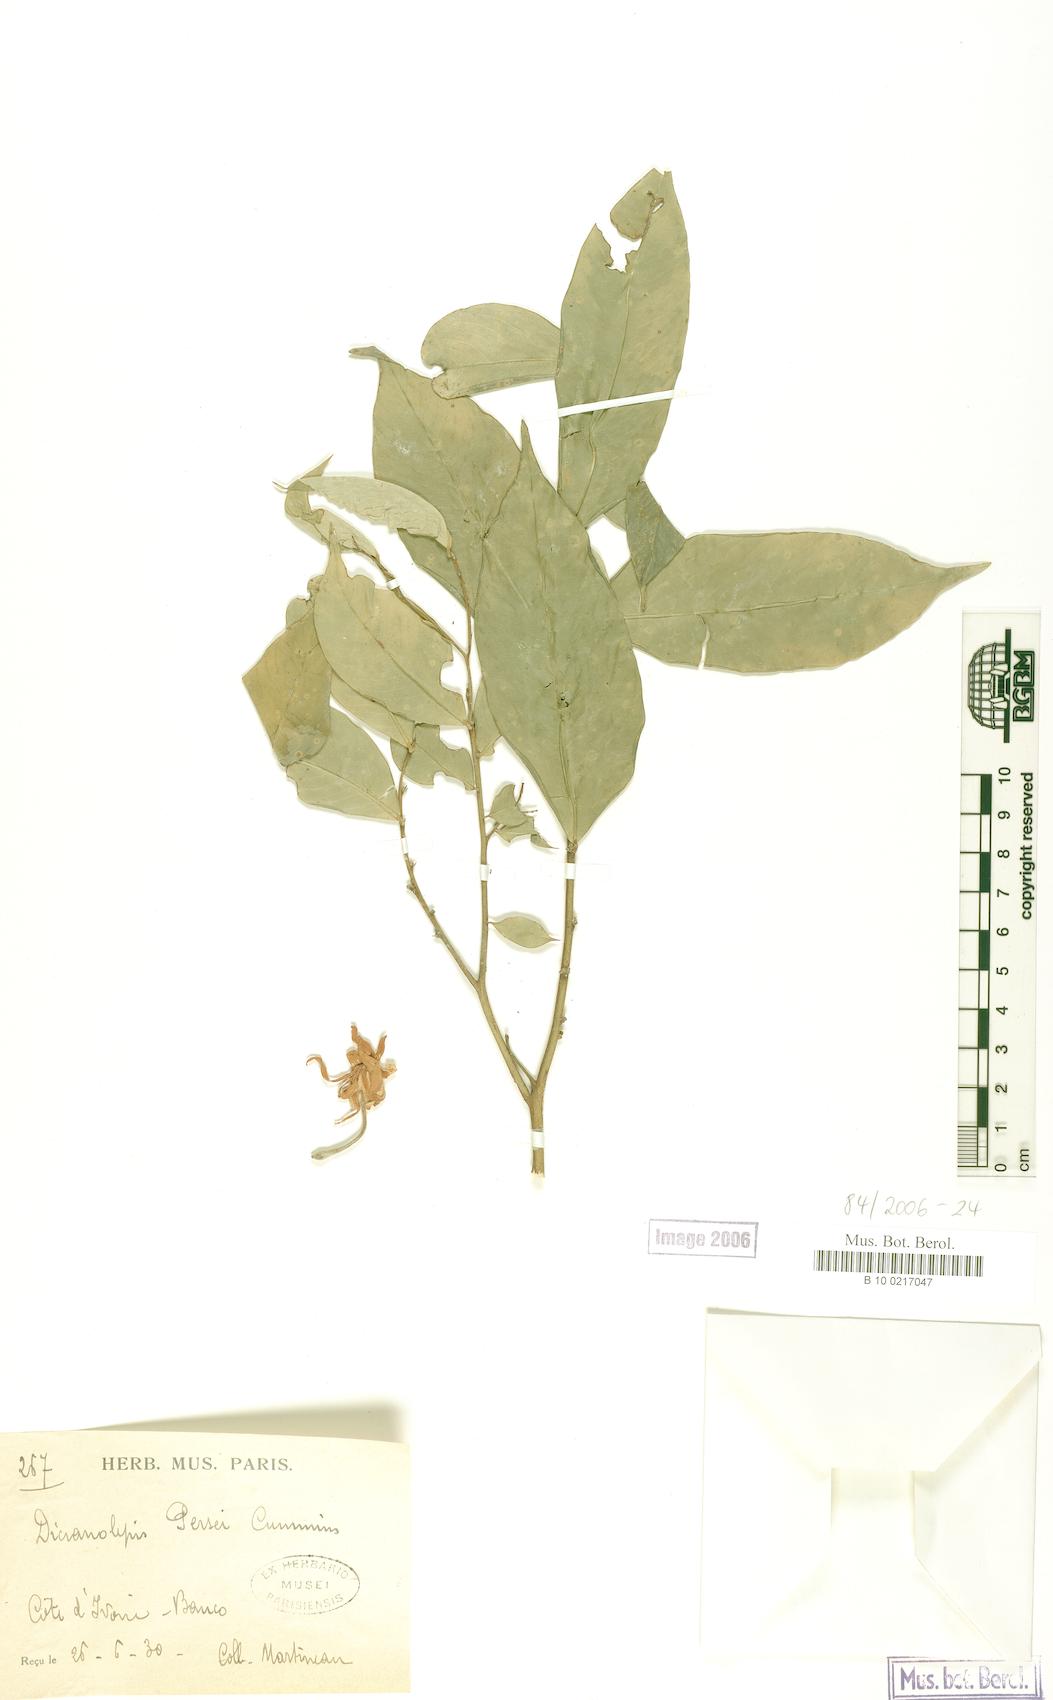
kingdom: Plantae
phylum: Tracheophyta
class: Magnoliopsida
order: Malvales
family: Thymelaeaceae
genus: Dicranolepis
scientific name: Dicranolepis persei
